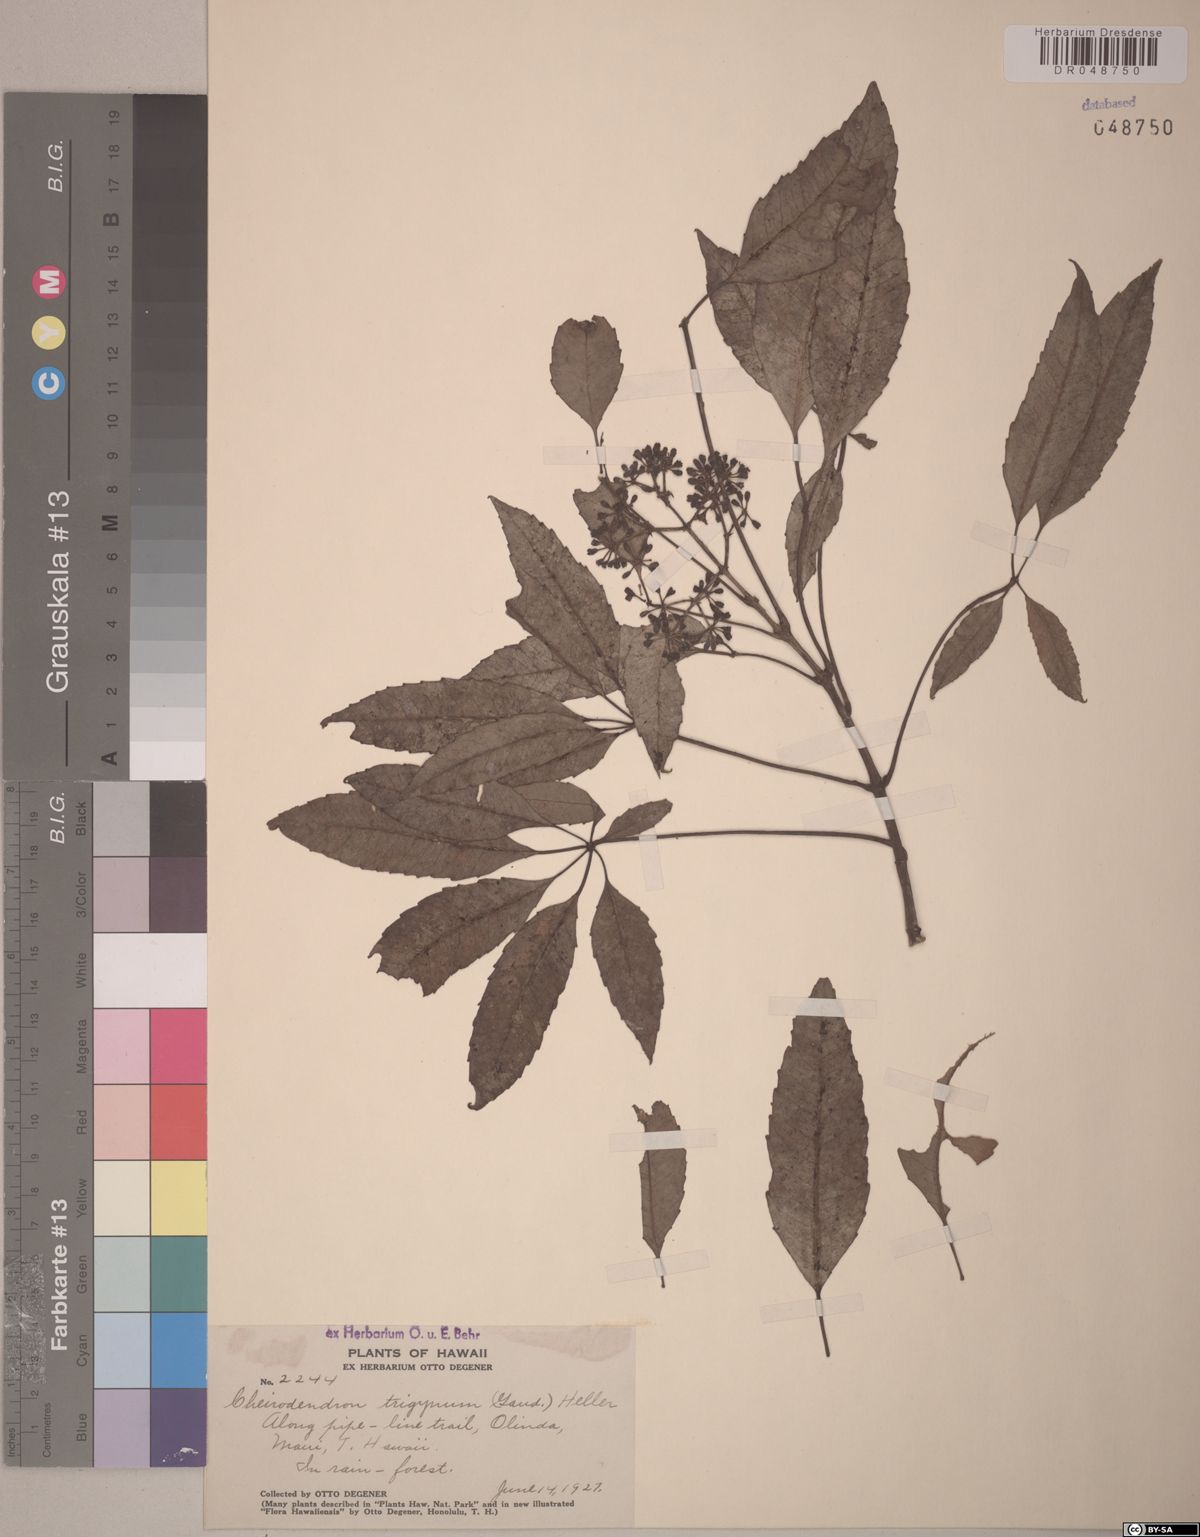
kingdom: Plantae
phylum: Tracheophyta
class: Magnoliopsida
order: Apiales
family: Araliaceae
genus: Cheirodendron
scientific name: Cheirodendron trigynum
